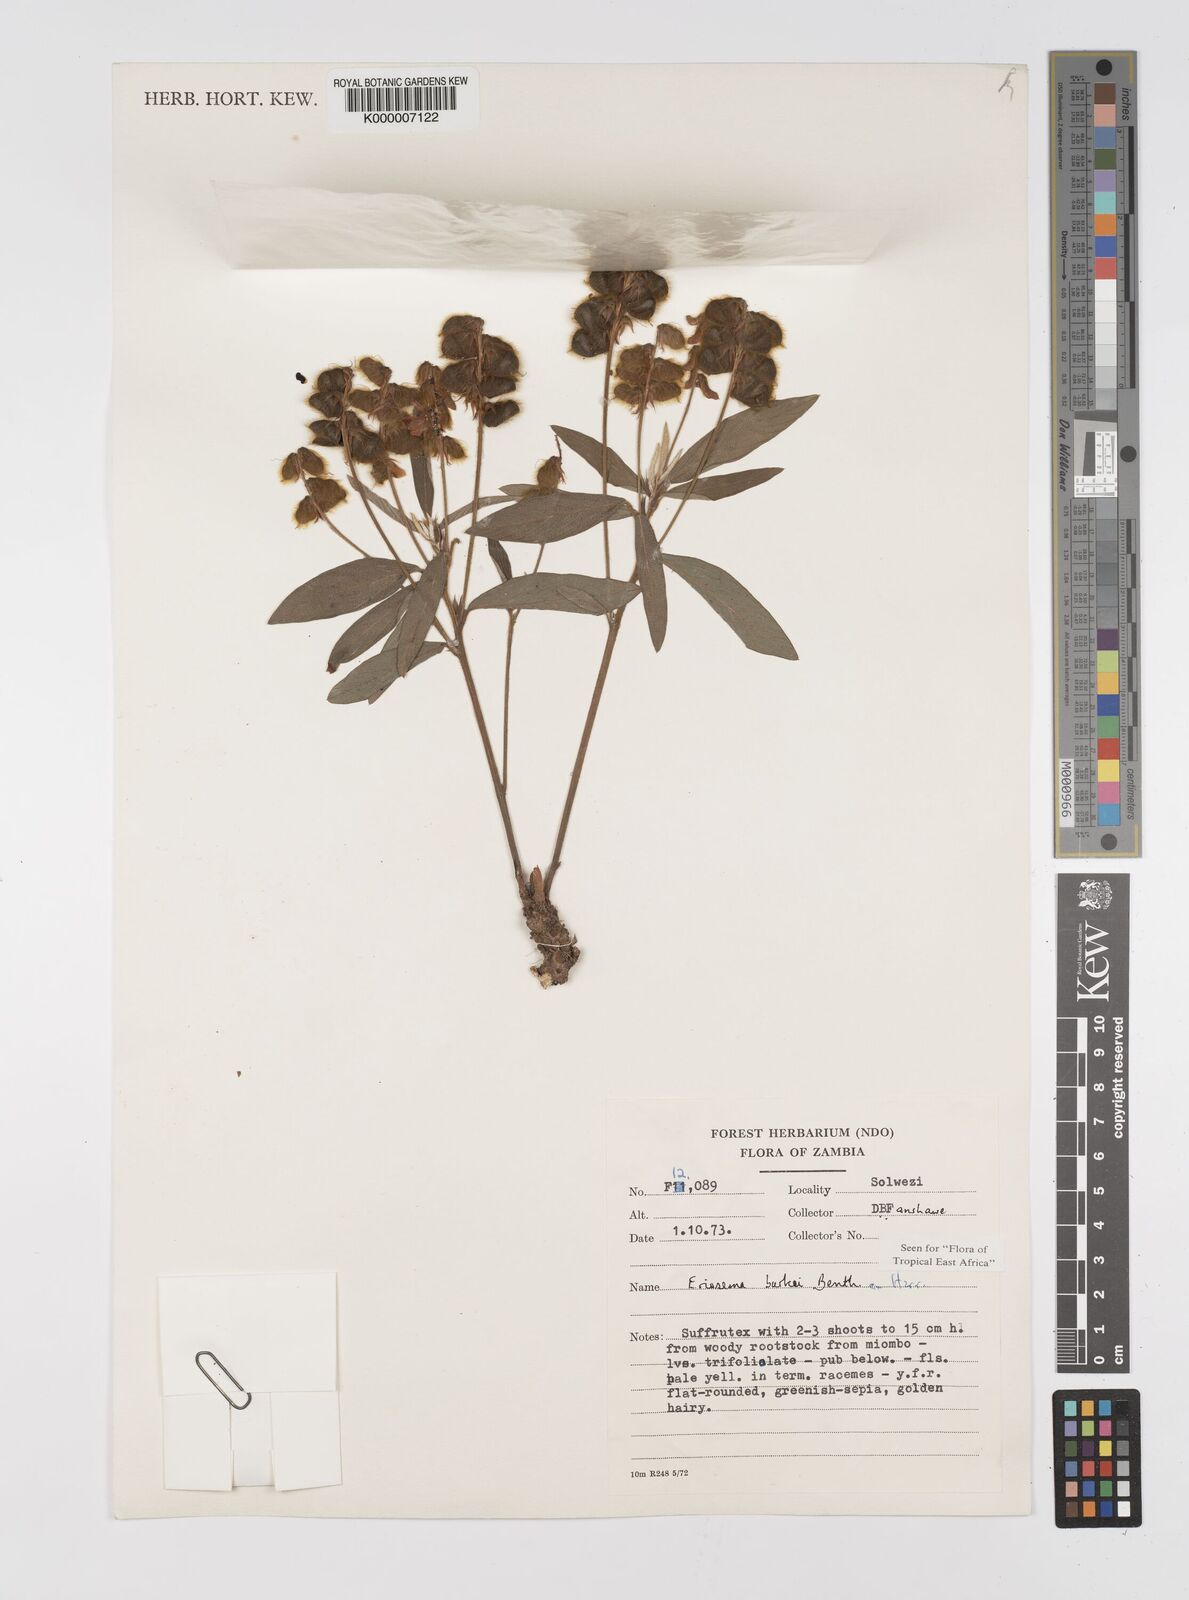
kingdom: Plantae
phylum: Tracheophyta
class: Magnoliopsida
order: Fabales
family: Fabaceae
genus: Eriosema
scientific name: Eriosema burkei
